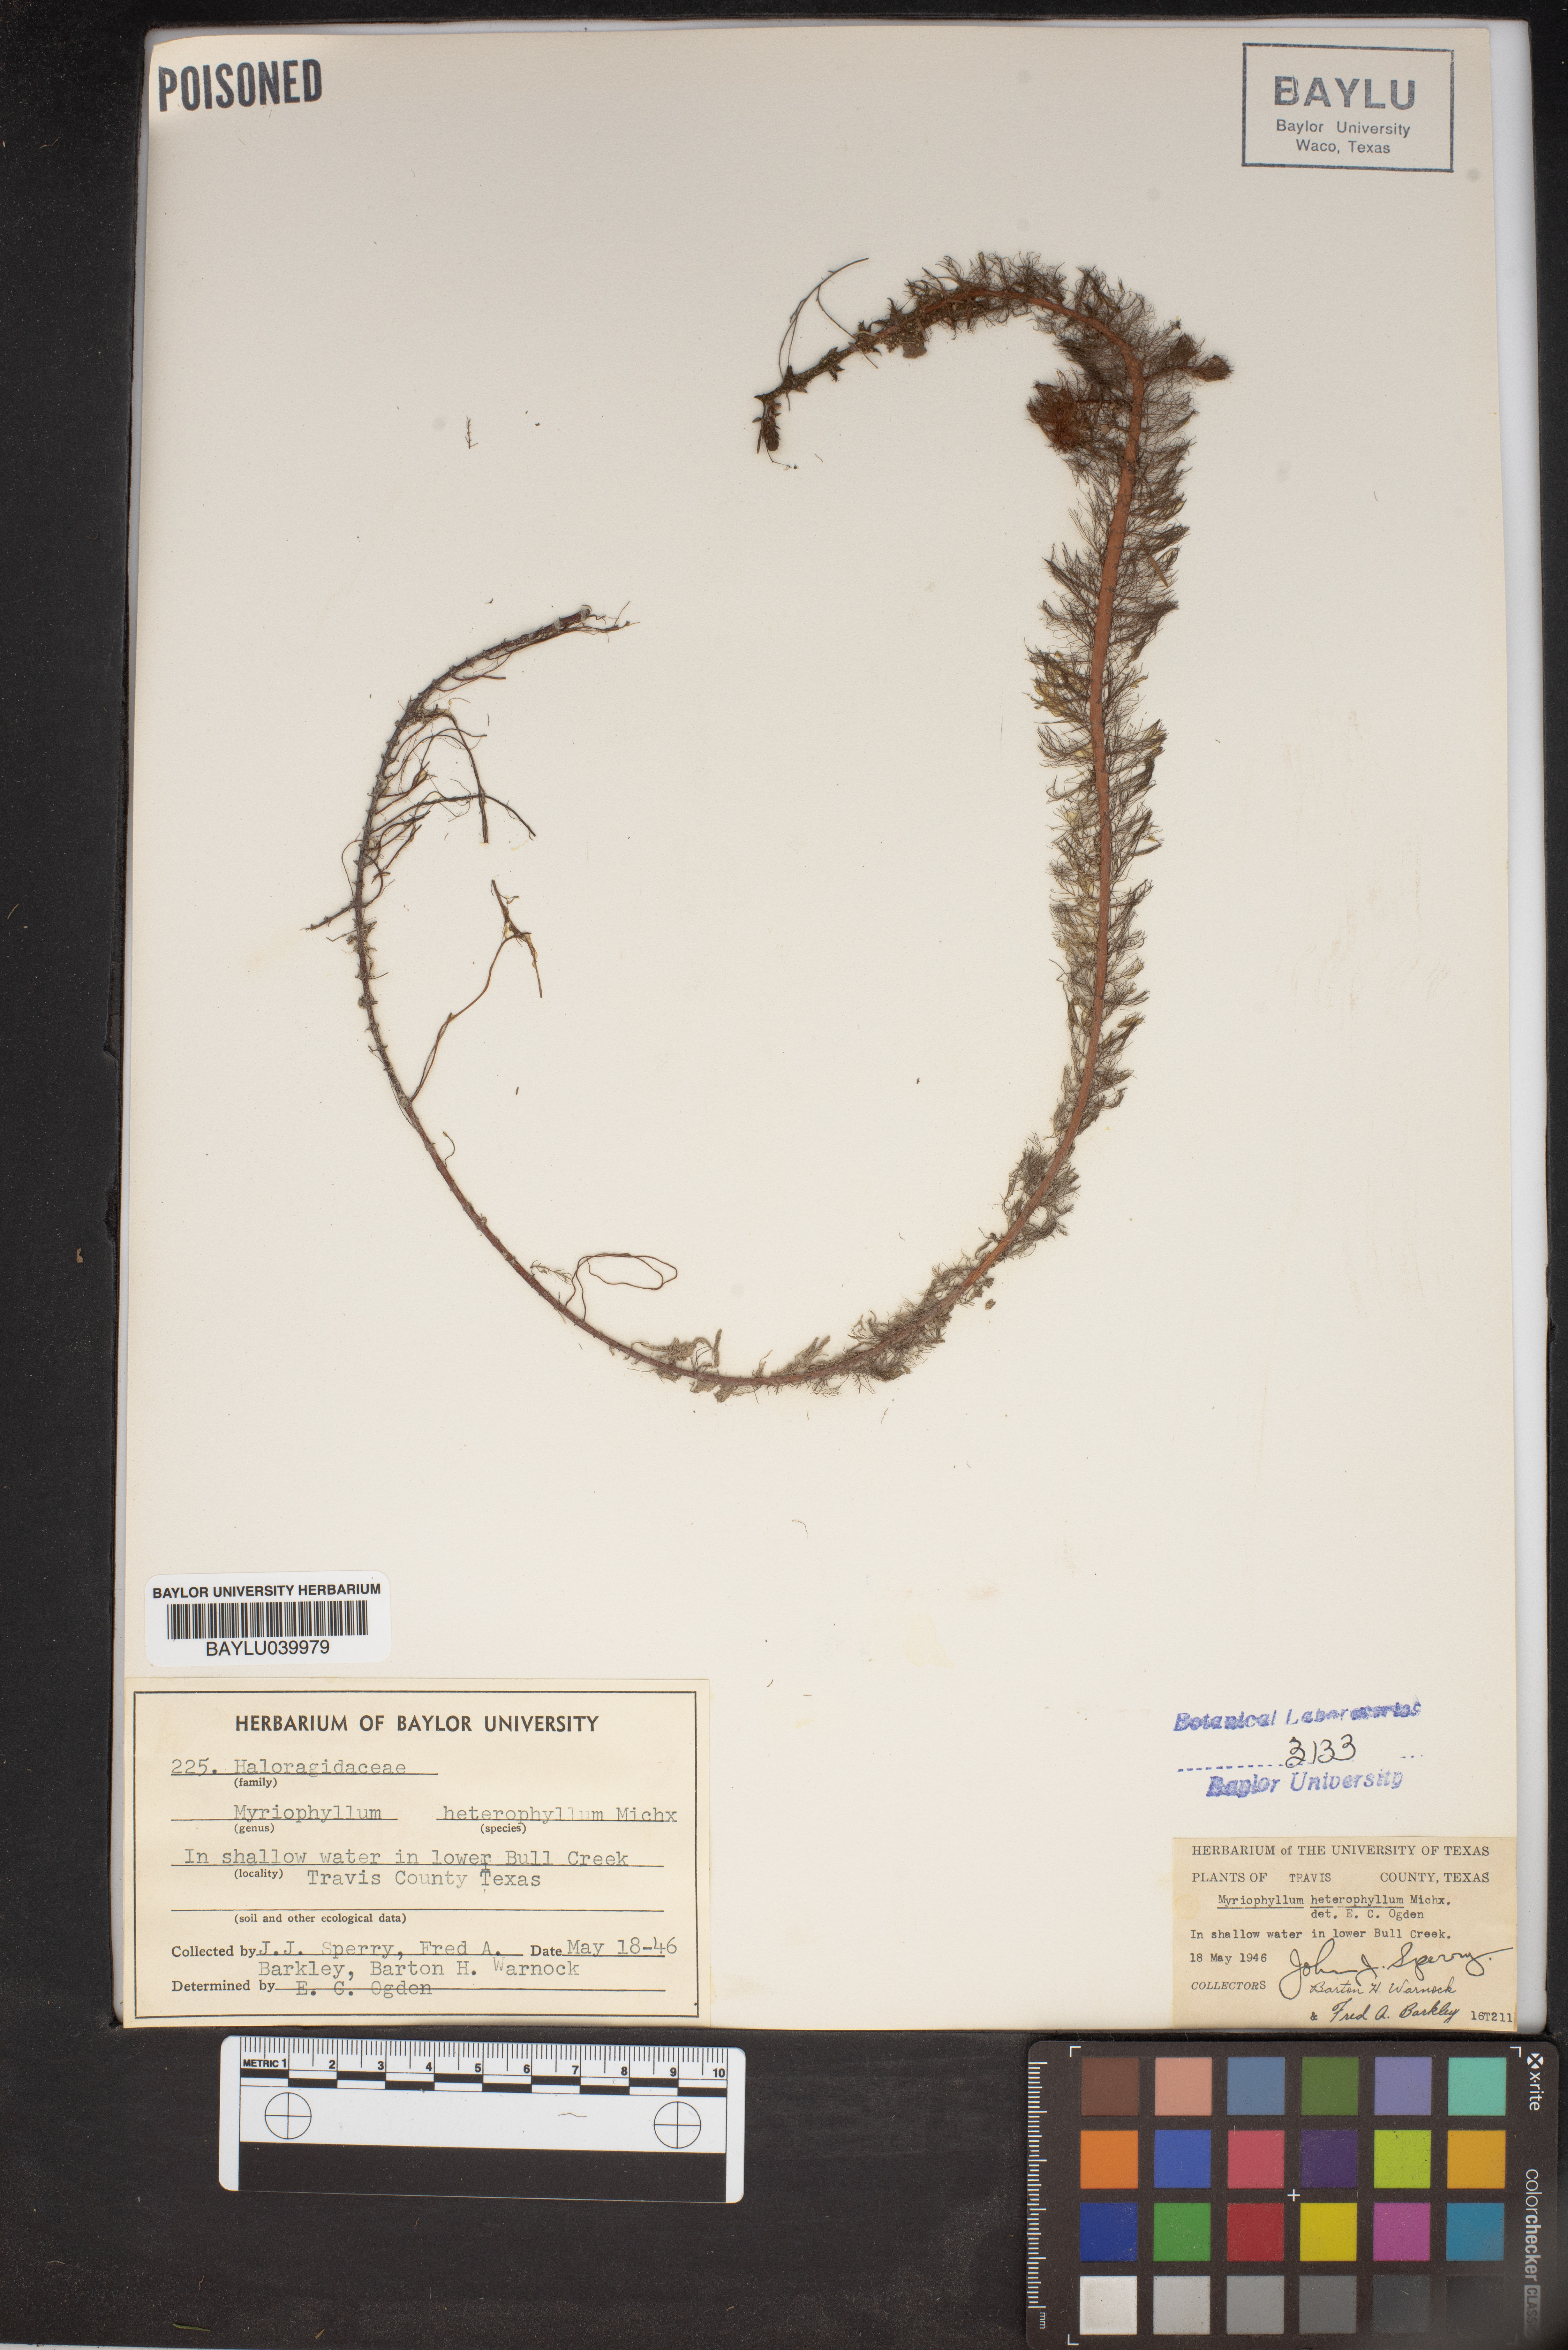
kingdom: Plantae
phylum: Tracheophyta
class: Magnoliopsida
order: Saxifragales
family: Haloragaceae
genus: Myriophyllum
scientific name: Myriophyllum heterophyllum
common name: Variable watermilfoil
